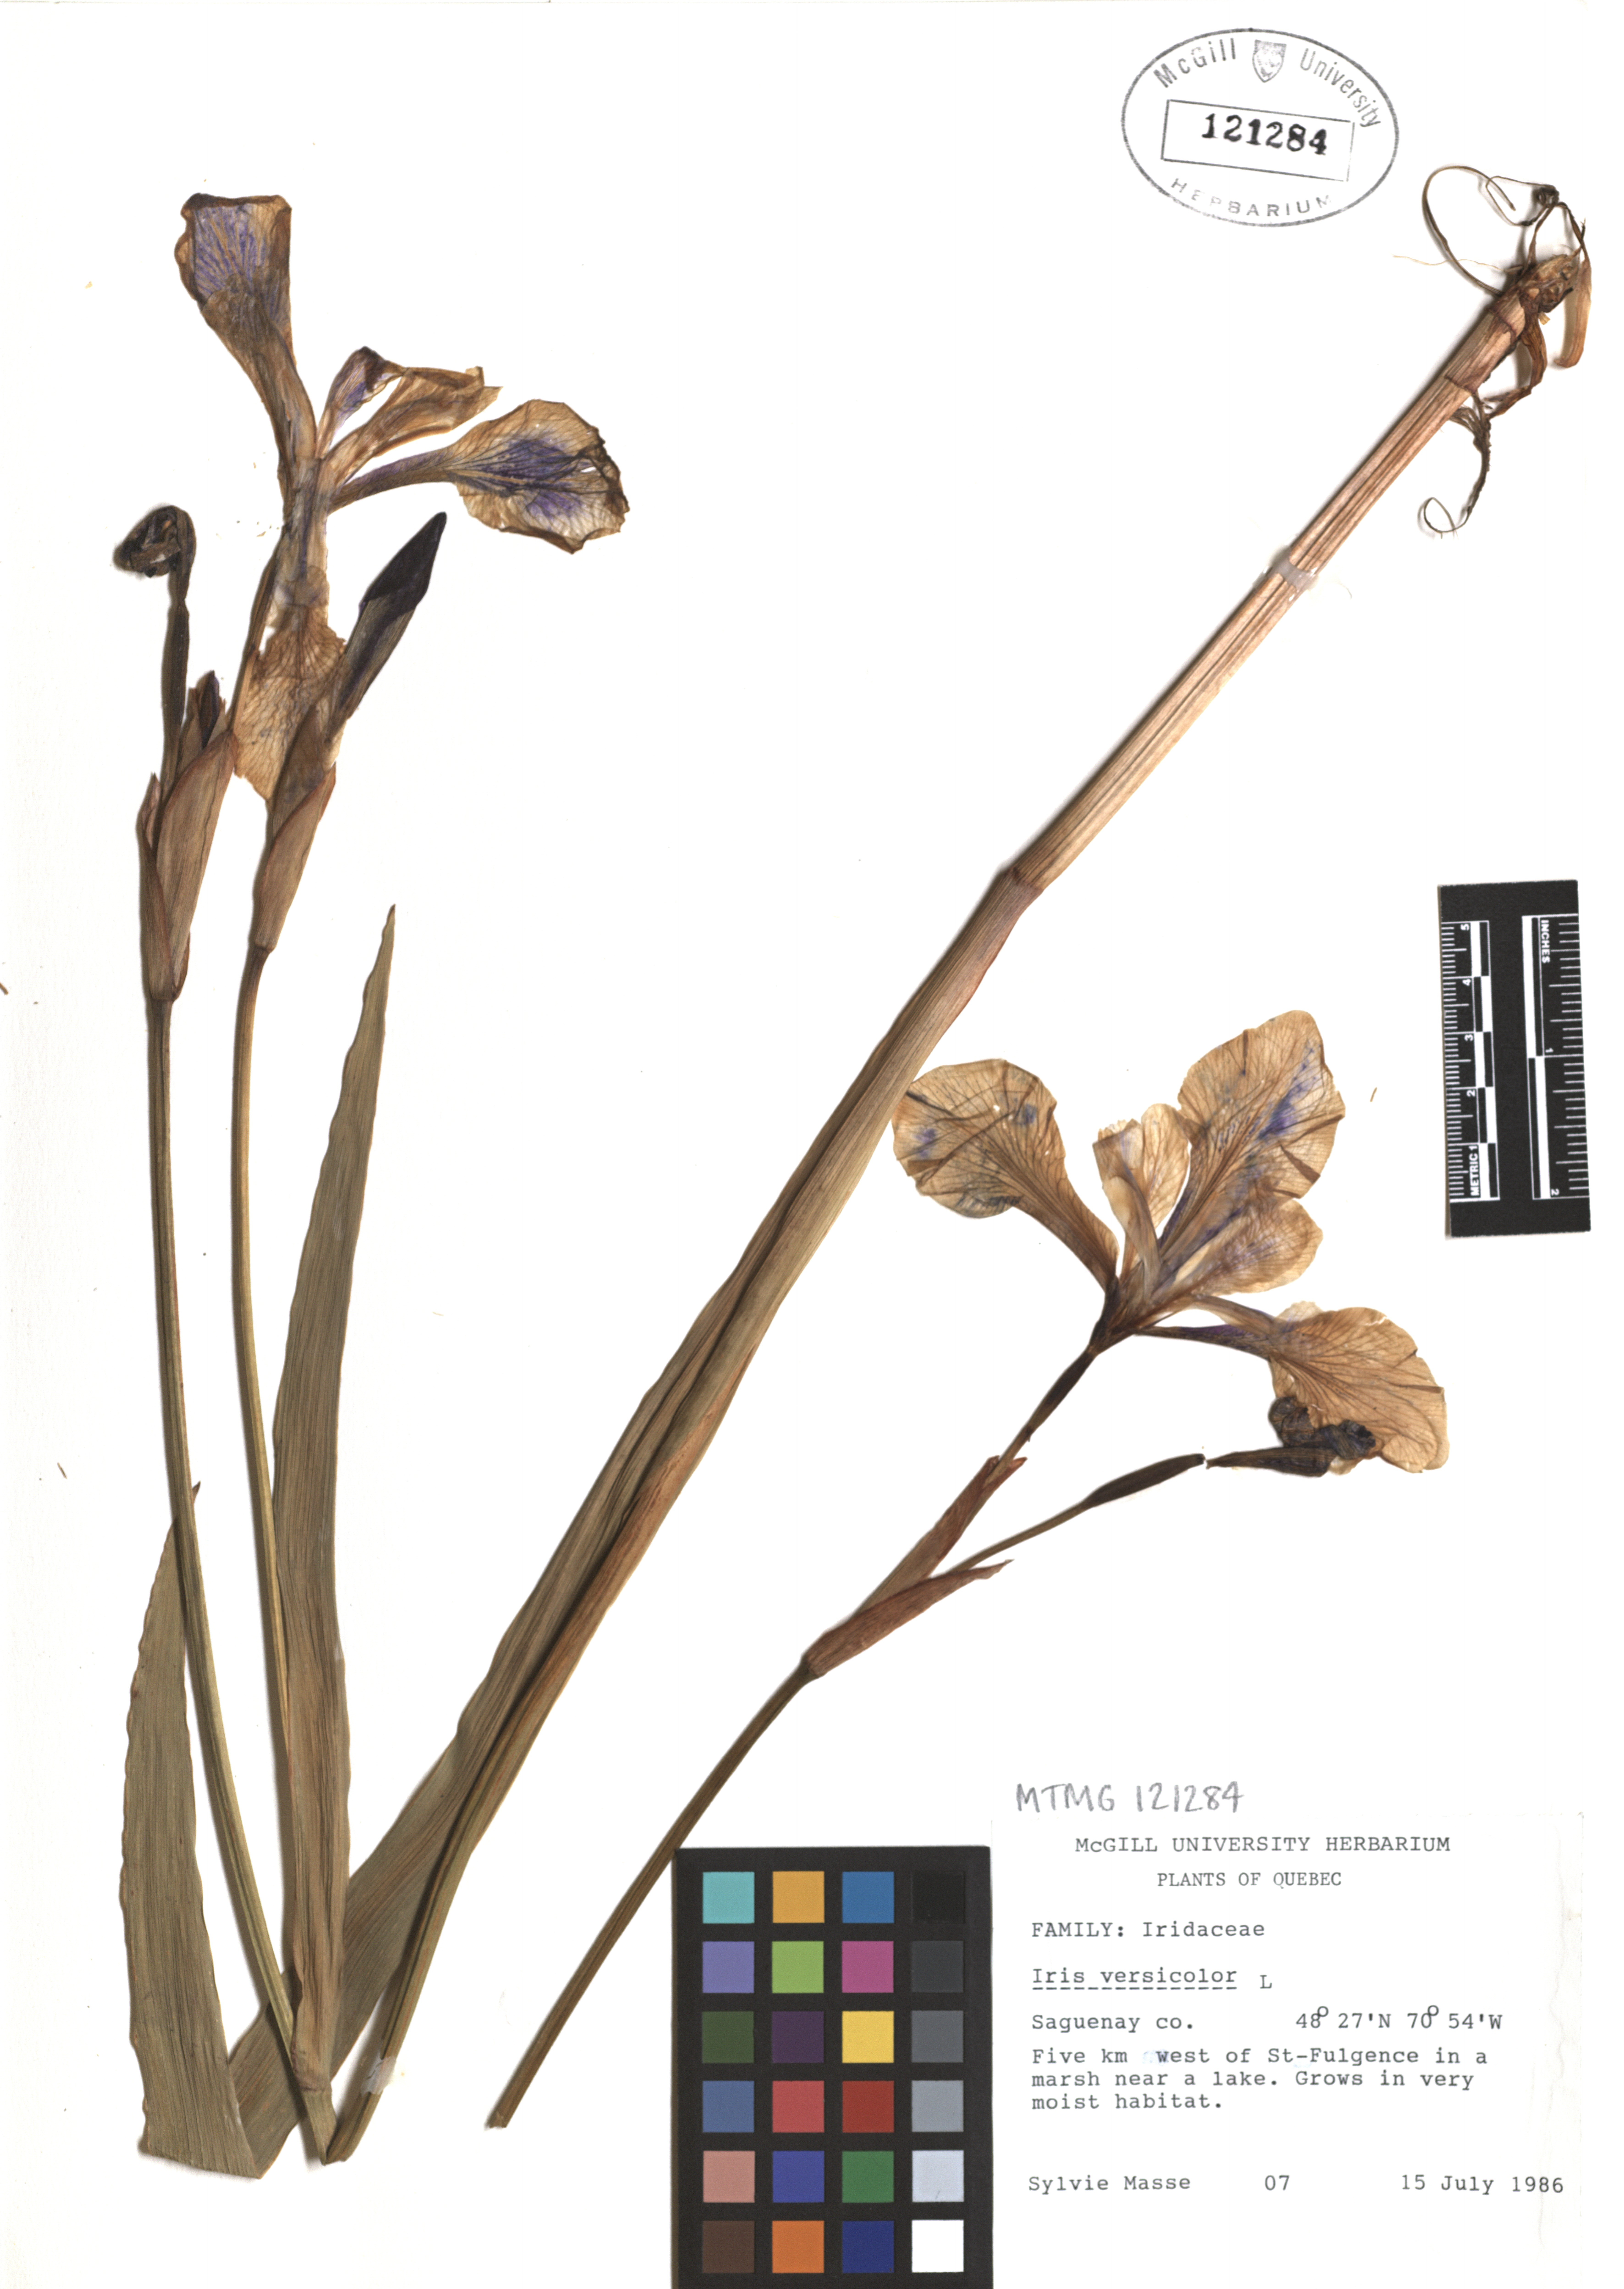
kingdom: Plantae
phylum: Tracheophyta
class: Liliopsida
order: Asparagales
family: Iridaceae
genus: Iris
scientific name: Iris versicolor
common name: Purple iris
